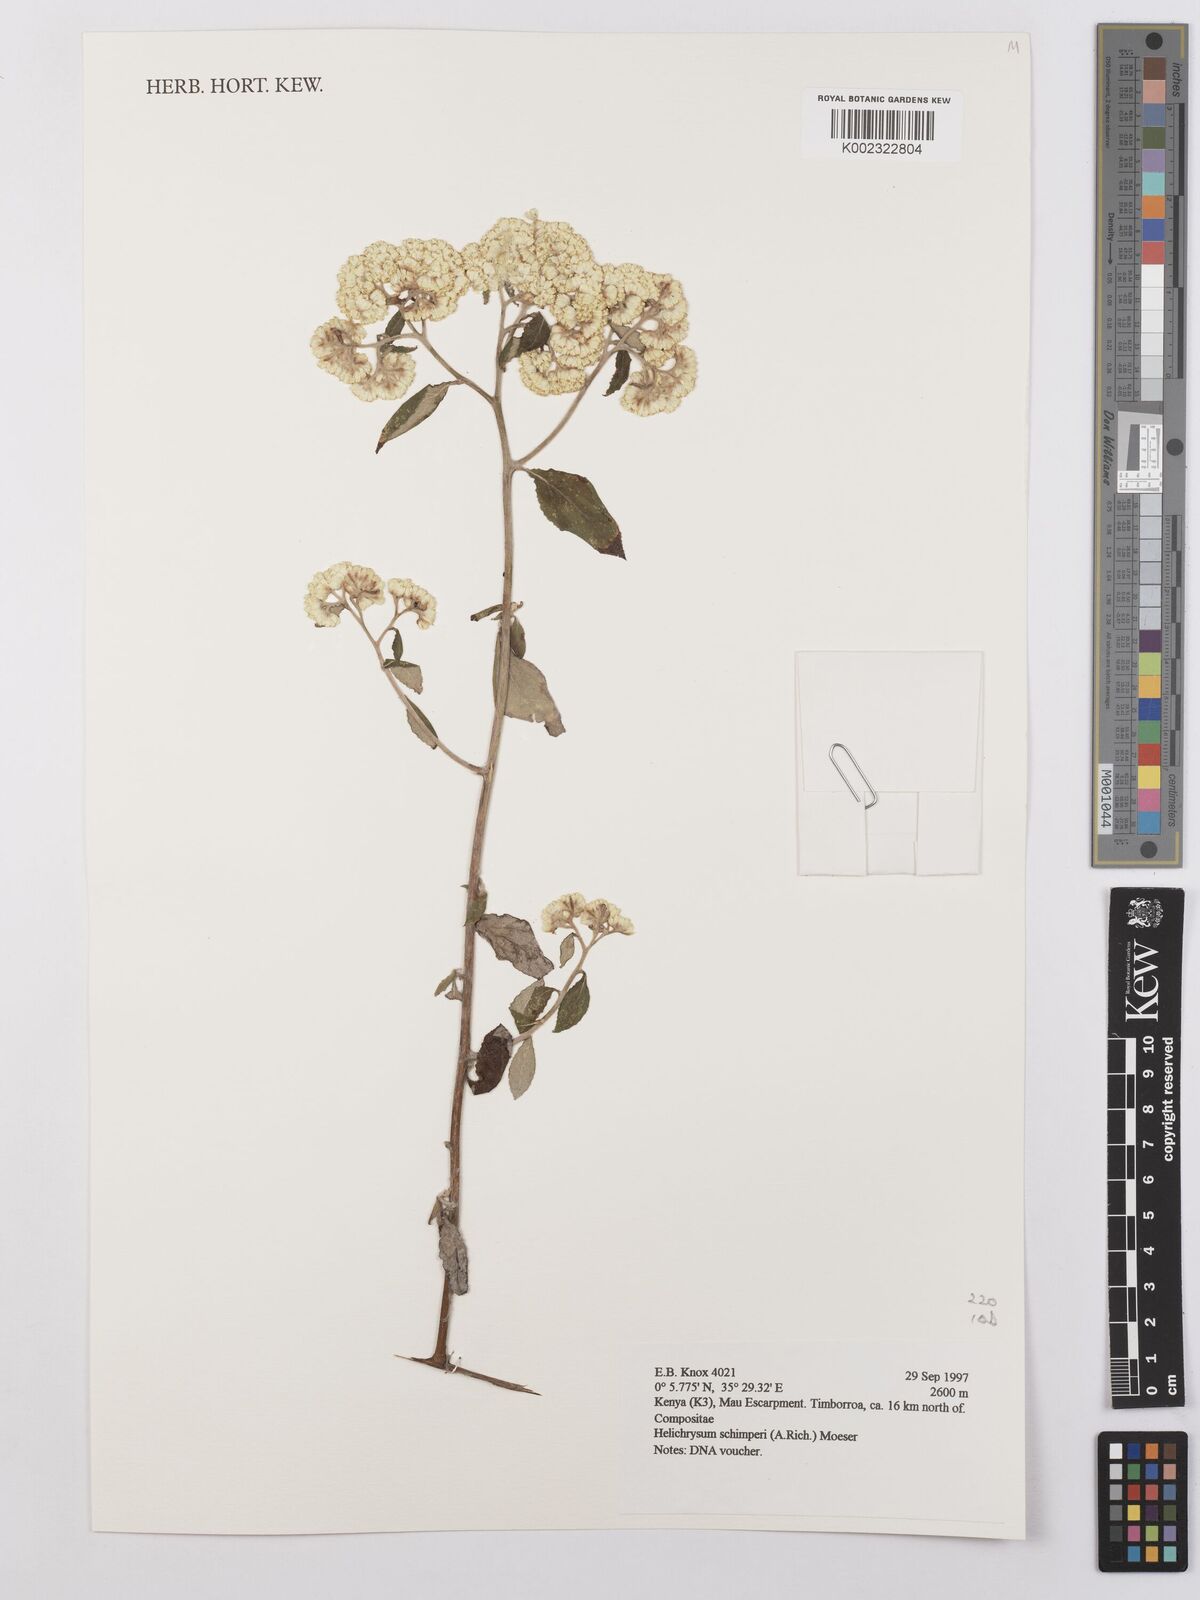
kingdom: Plantae
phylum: Tracheophyta
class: Magnoliopsida
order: Asterales
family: Asteraceae
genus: Helichrysum
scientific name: Helichrysum schimperi
